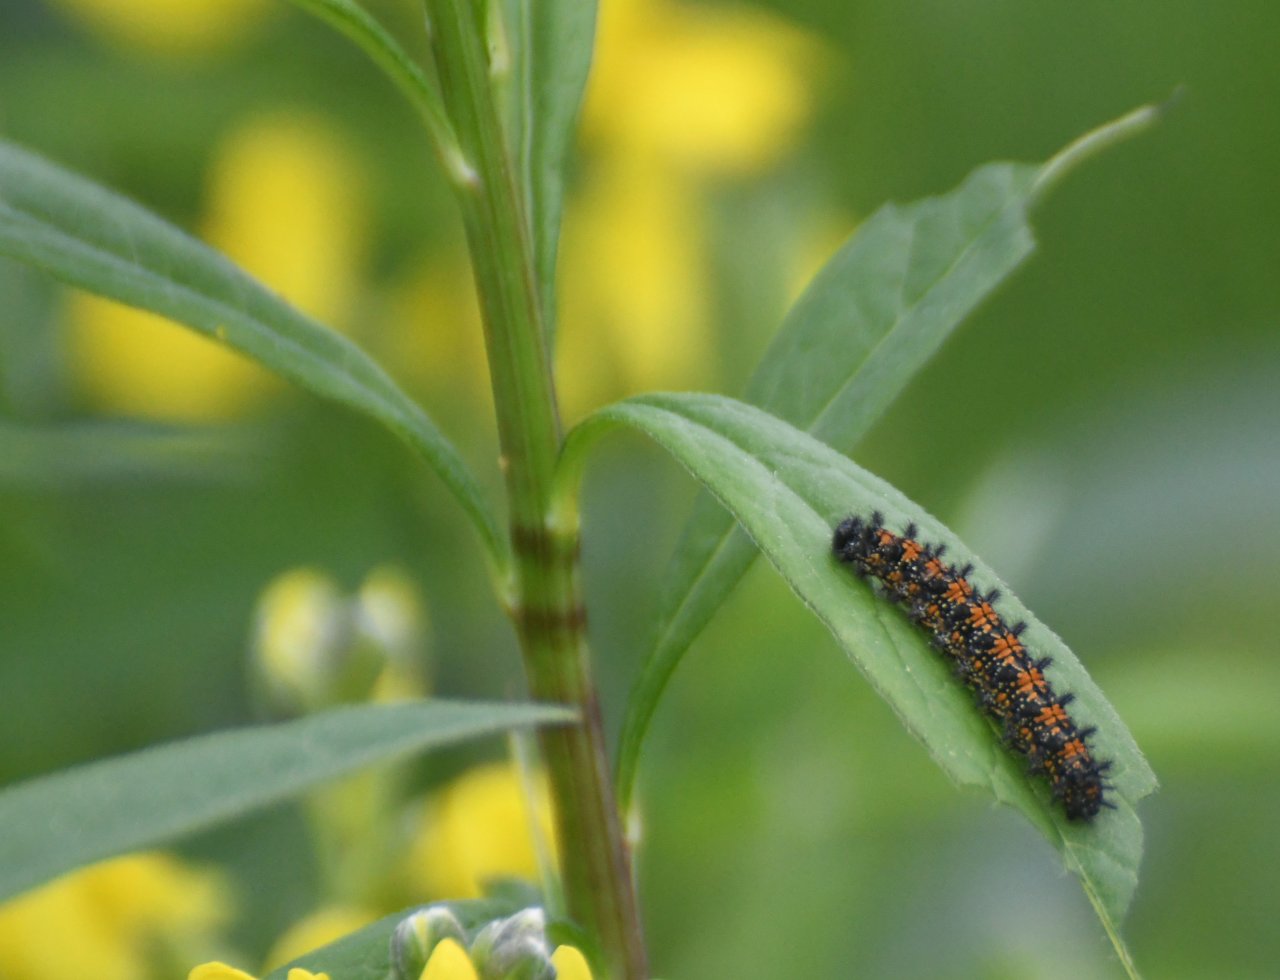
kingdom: Animalia
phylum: Arthropoda
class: Insecta
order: Lepidoptera
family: Nymphalidae
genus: Chlosyne
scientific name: Chlosyne harrisii
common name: Harris's Checkerspot
